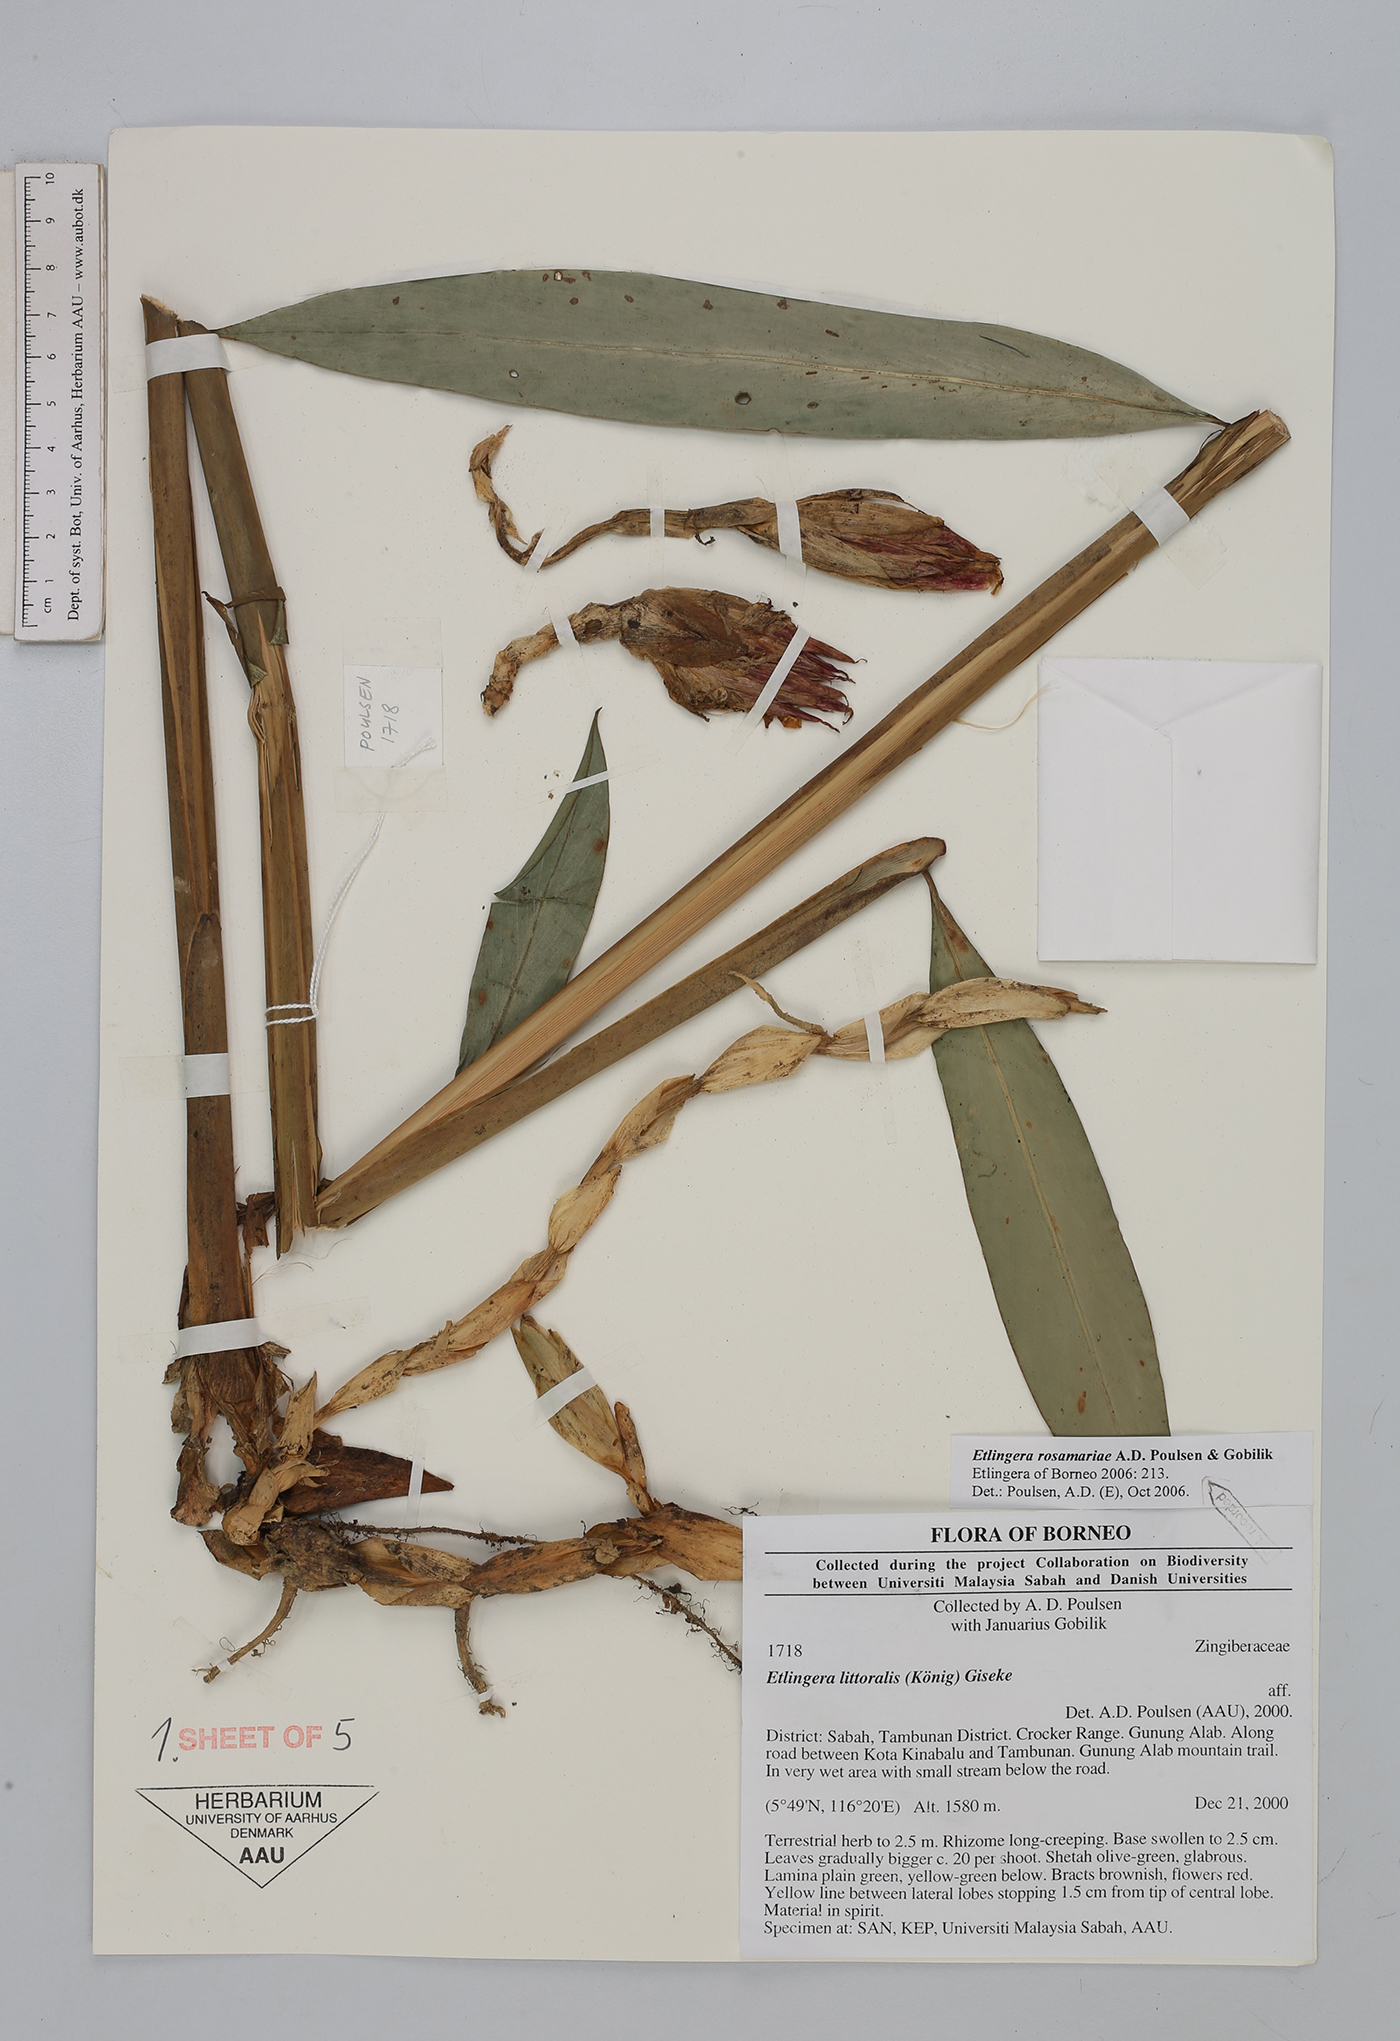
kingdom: Plantae
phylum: Tracheophyta
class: Liliopsida
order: Zingiberales
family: Zingiberaceae
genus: Etlingera
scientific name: Etlingera rosamariae
